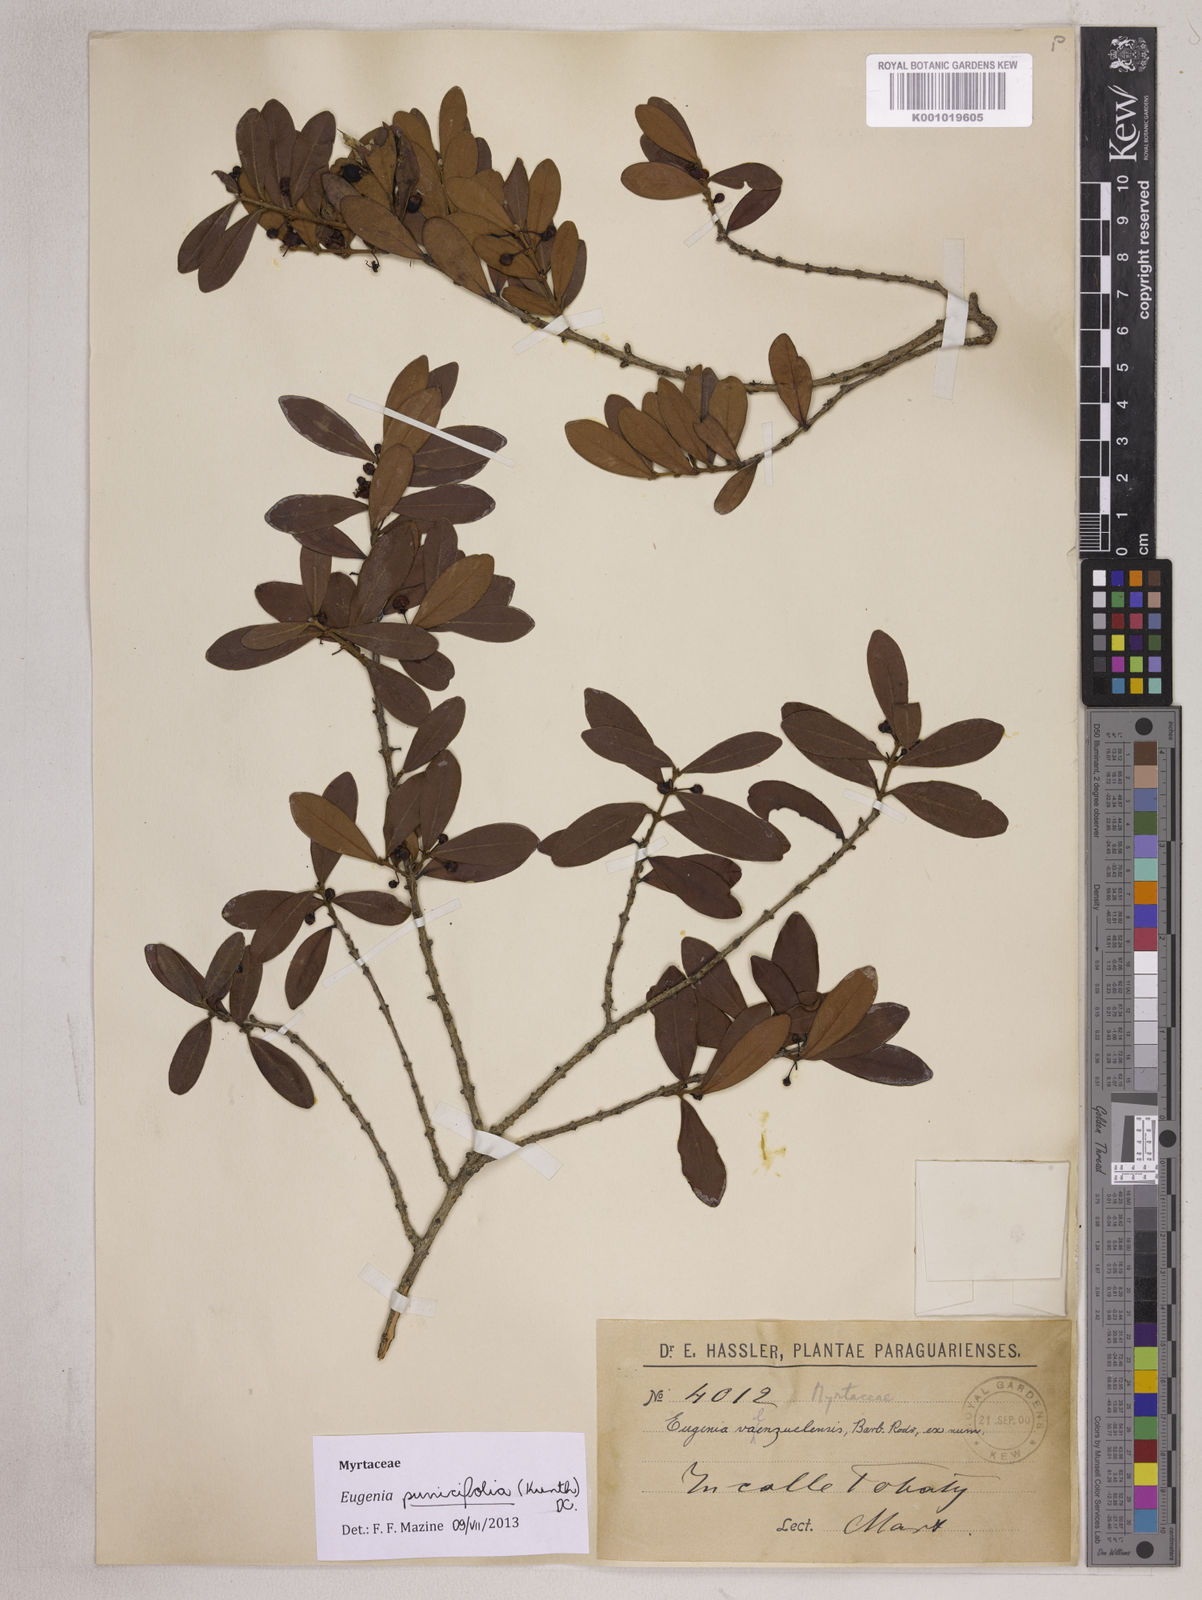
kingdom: Plantae
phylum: Tracheophyta
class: Magnoliopsida
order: Myrtales
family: Myrtaceae
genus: Eugenia
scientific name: Eugenia punicifolia
